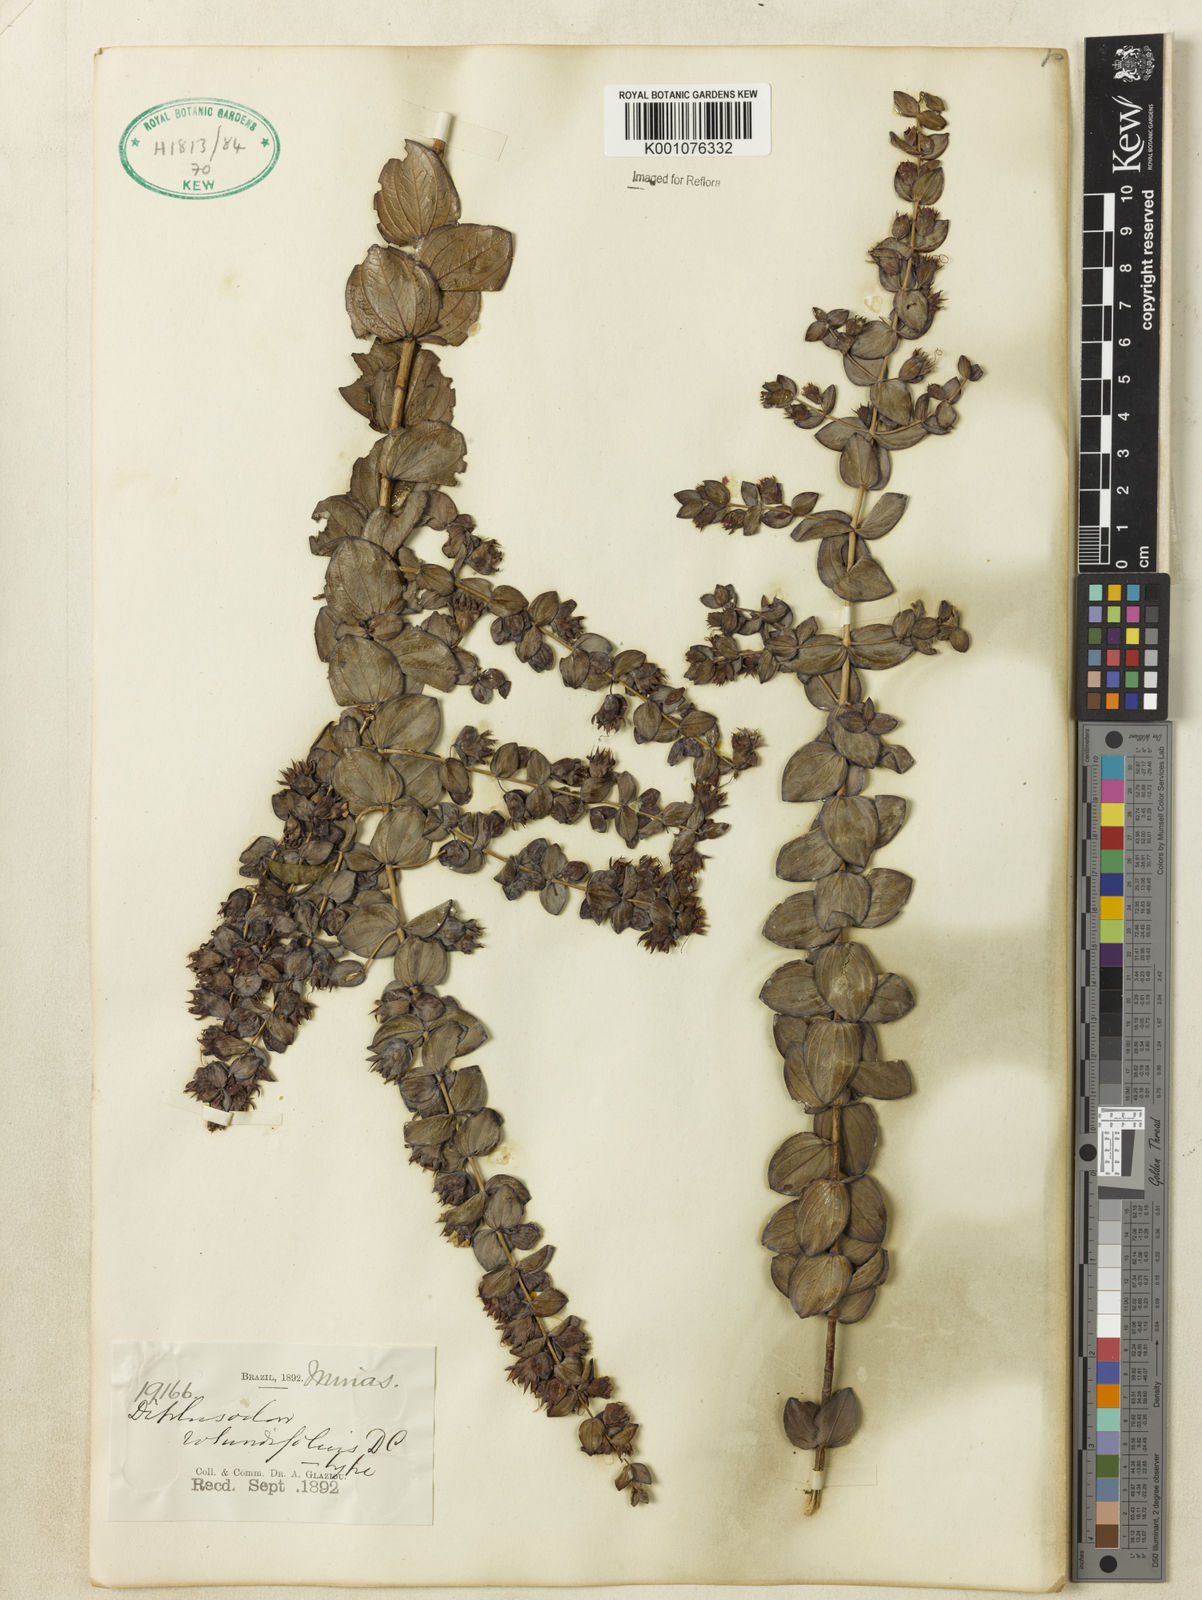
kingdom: Plantae
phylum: Tracheophyta
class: Magnoliopsida
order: Myrtales
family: Lythraceae
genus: Diplusodon
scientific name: Diplusodon rotundifolius
